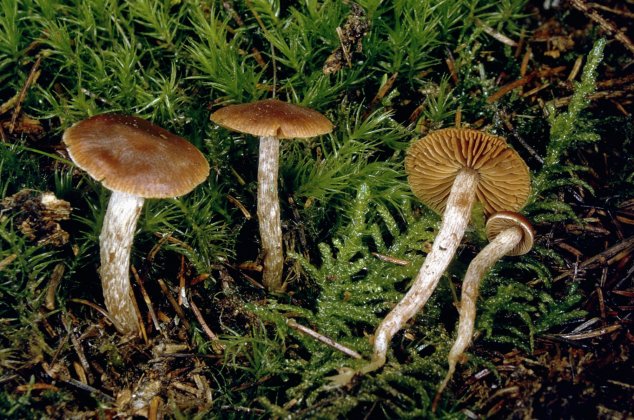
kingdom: Fungi
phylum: Basidiomycota
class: Agaricomycetes
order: Agaricales
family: Cortinariaceae
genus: Cortinarius
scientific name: Cortinarius
